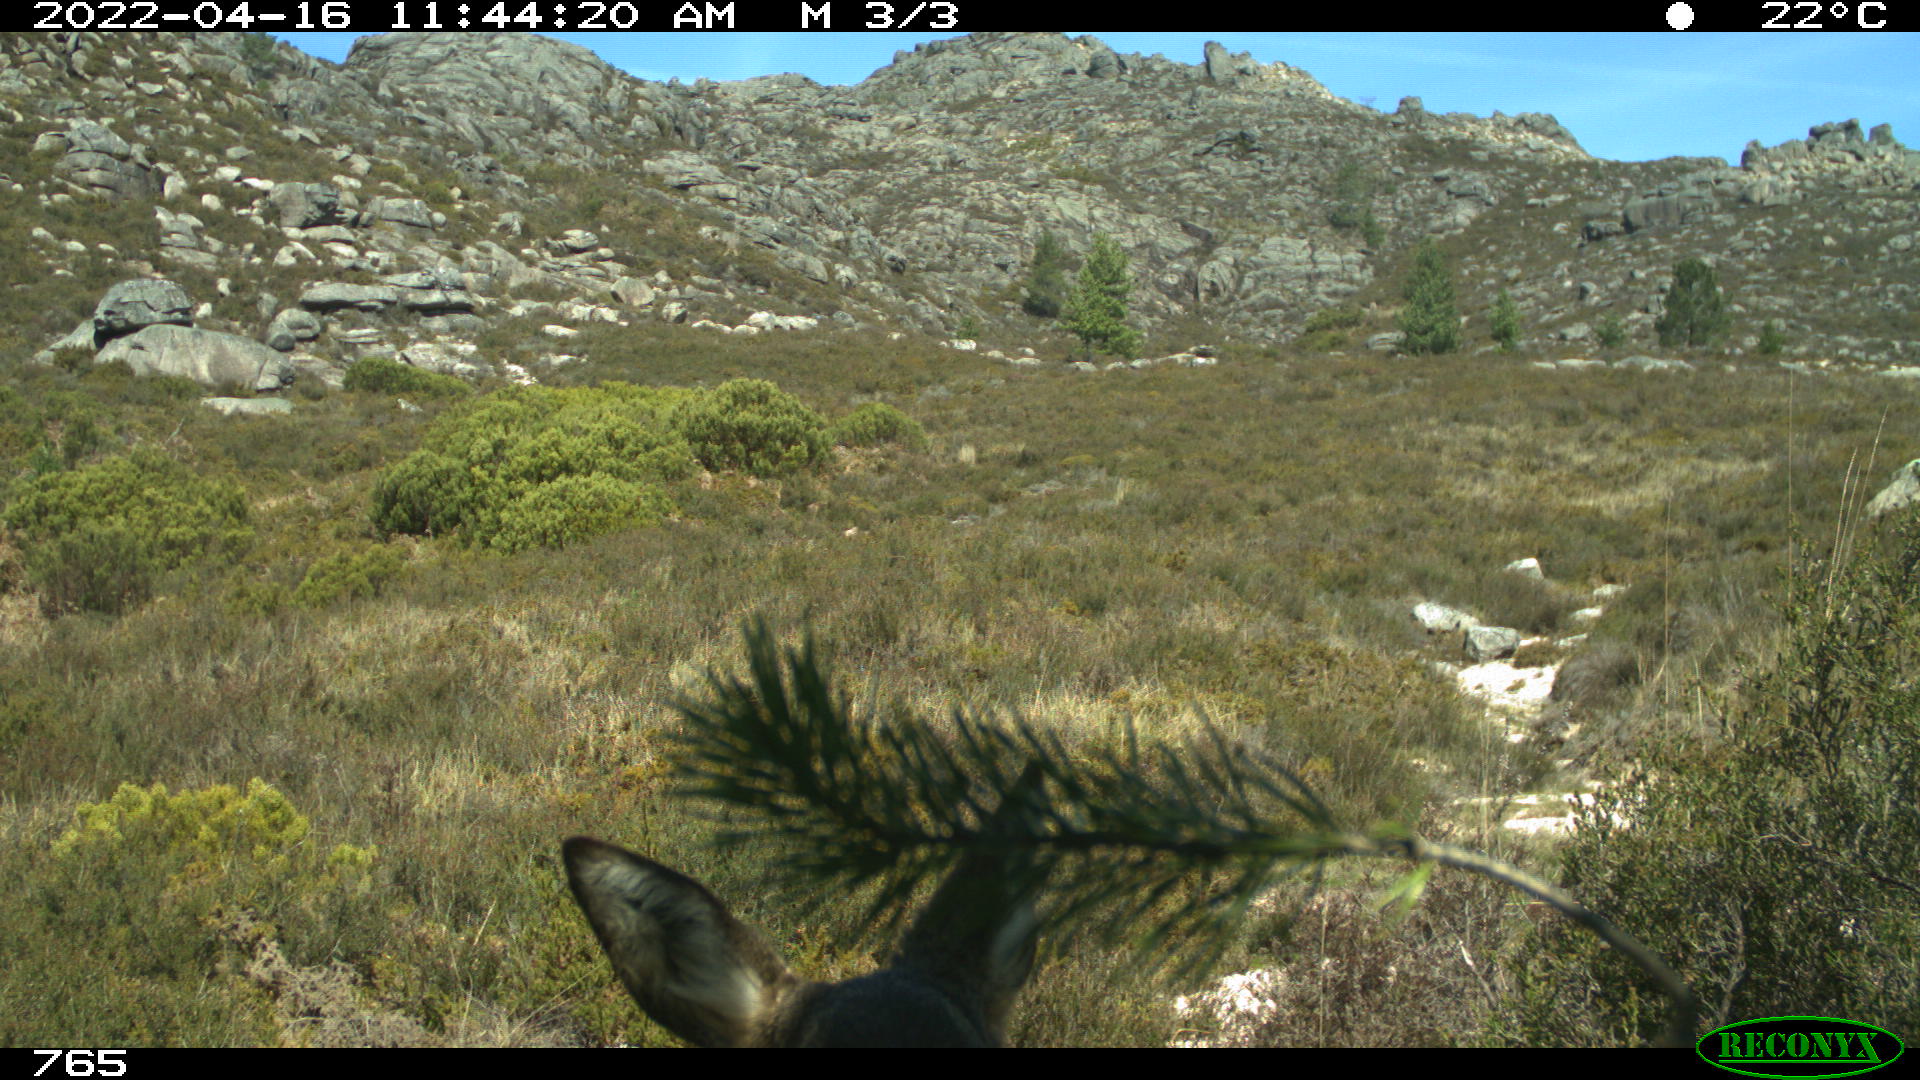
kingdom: Animalia
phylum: Chordata
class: Mammalia
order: Artiodactyla
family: Cervidae
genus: Capreolus
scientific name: Capreolus capreolus
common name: Western roe deer
